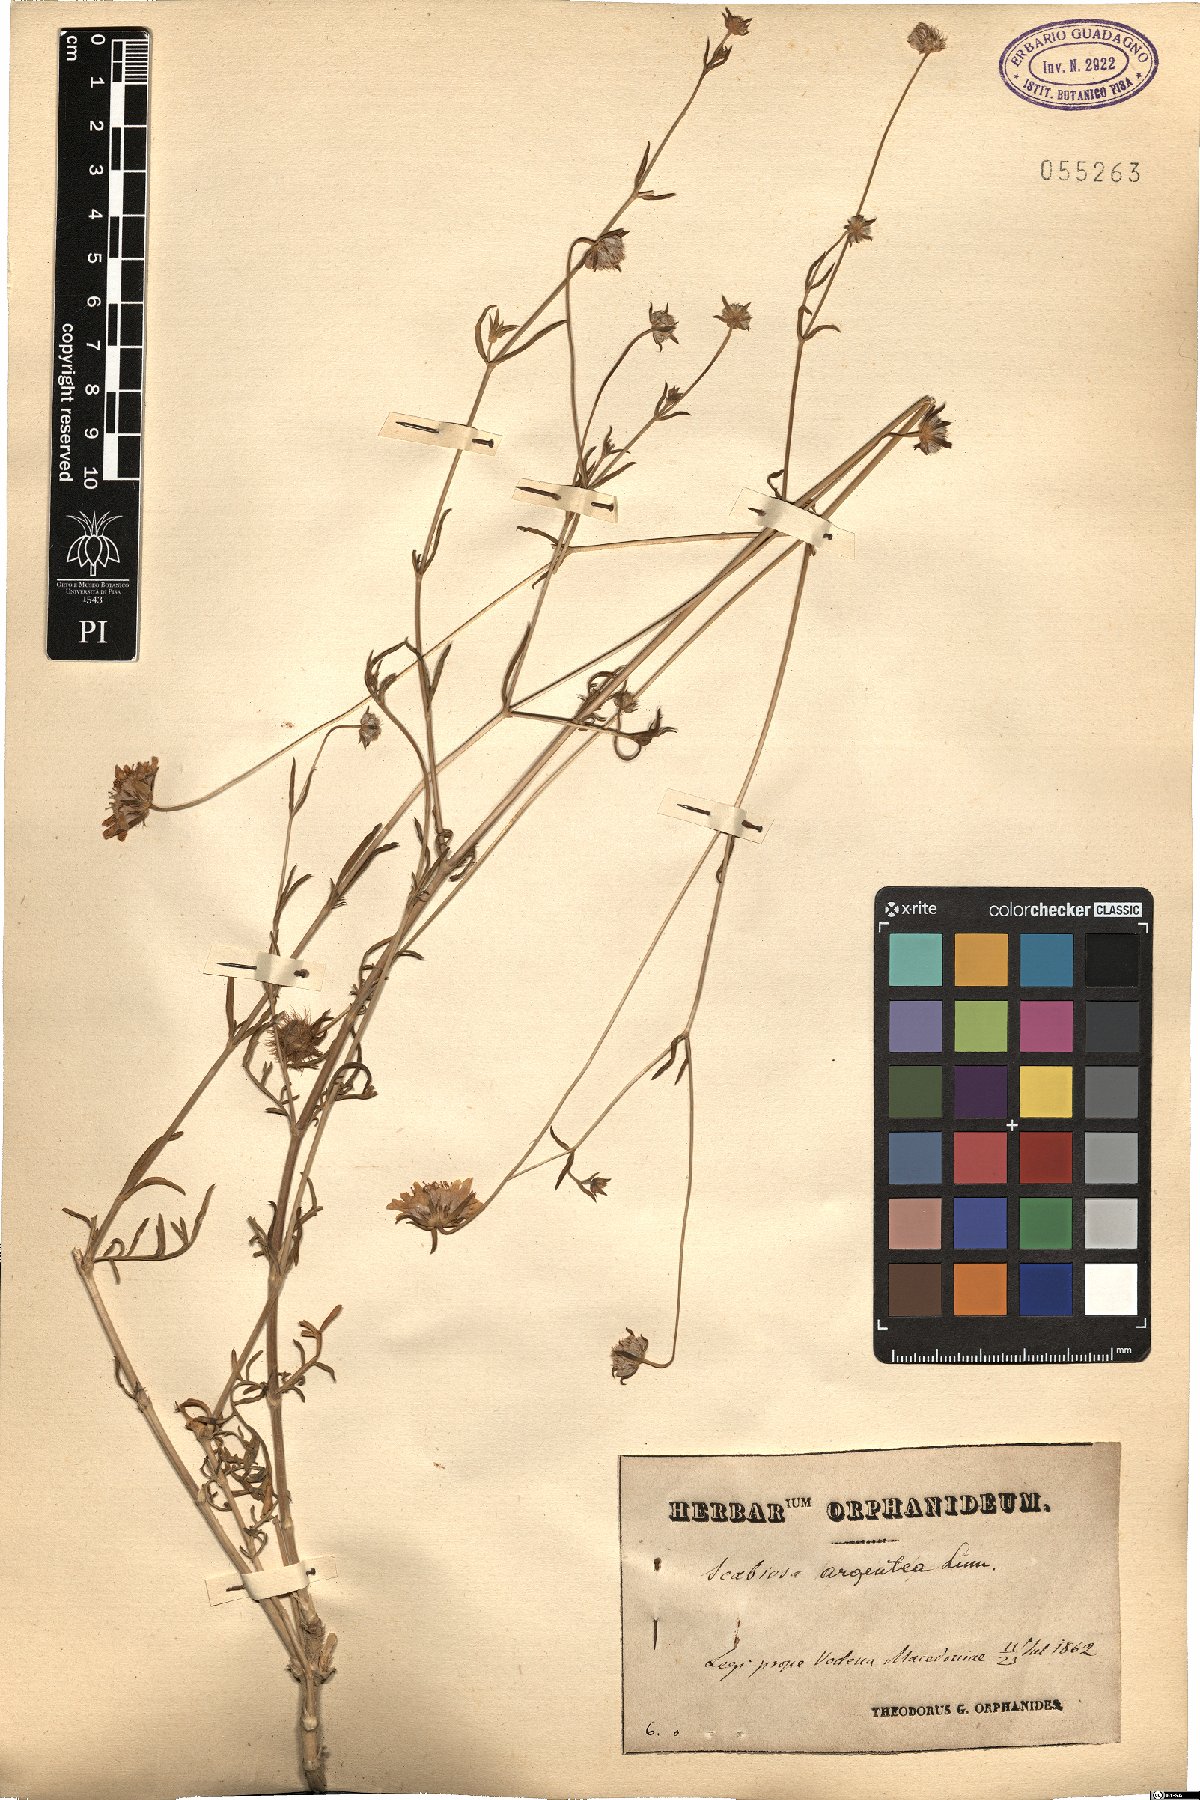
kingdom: Plantae
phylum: Tracheophyta
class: Magnoliopsida
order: Dipsacales
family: Caprifoliaceae
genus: Lomelosia
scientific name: Lomelosia argentea
